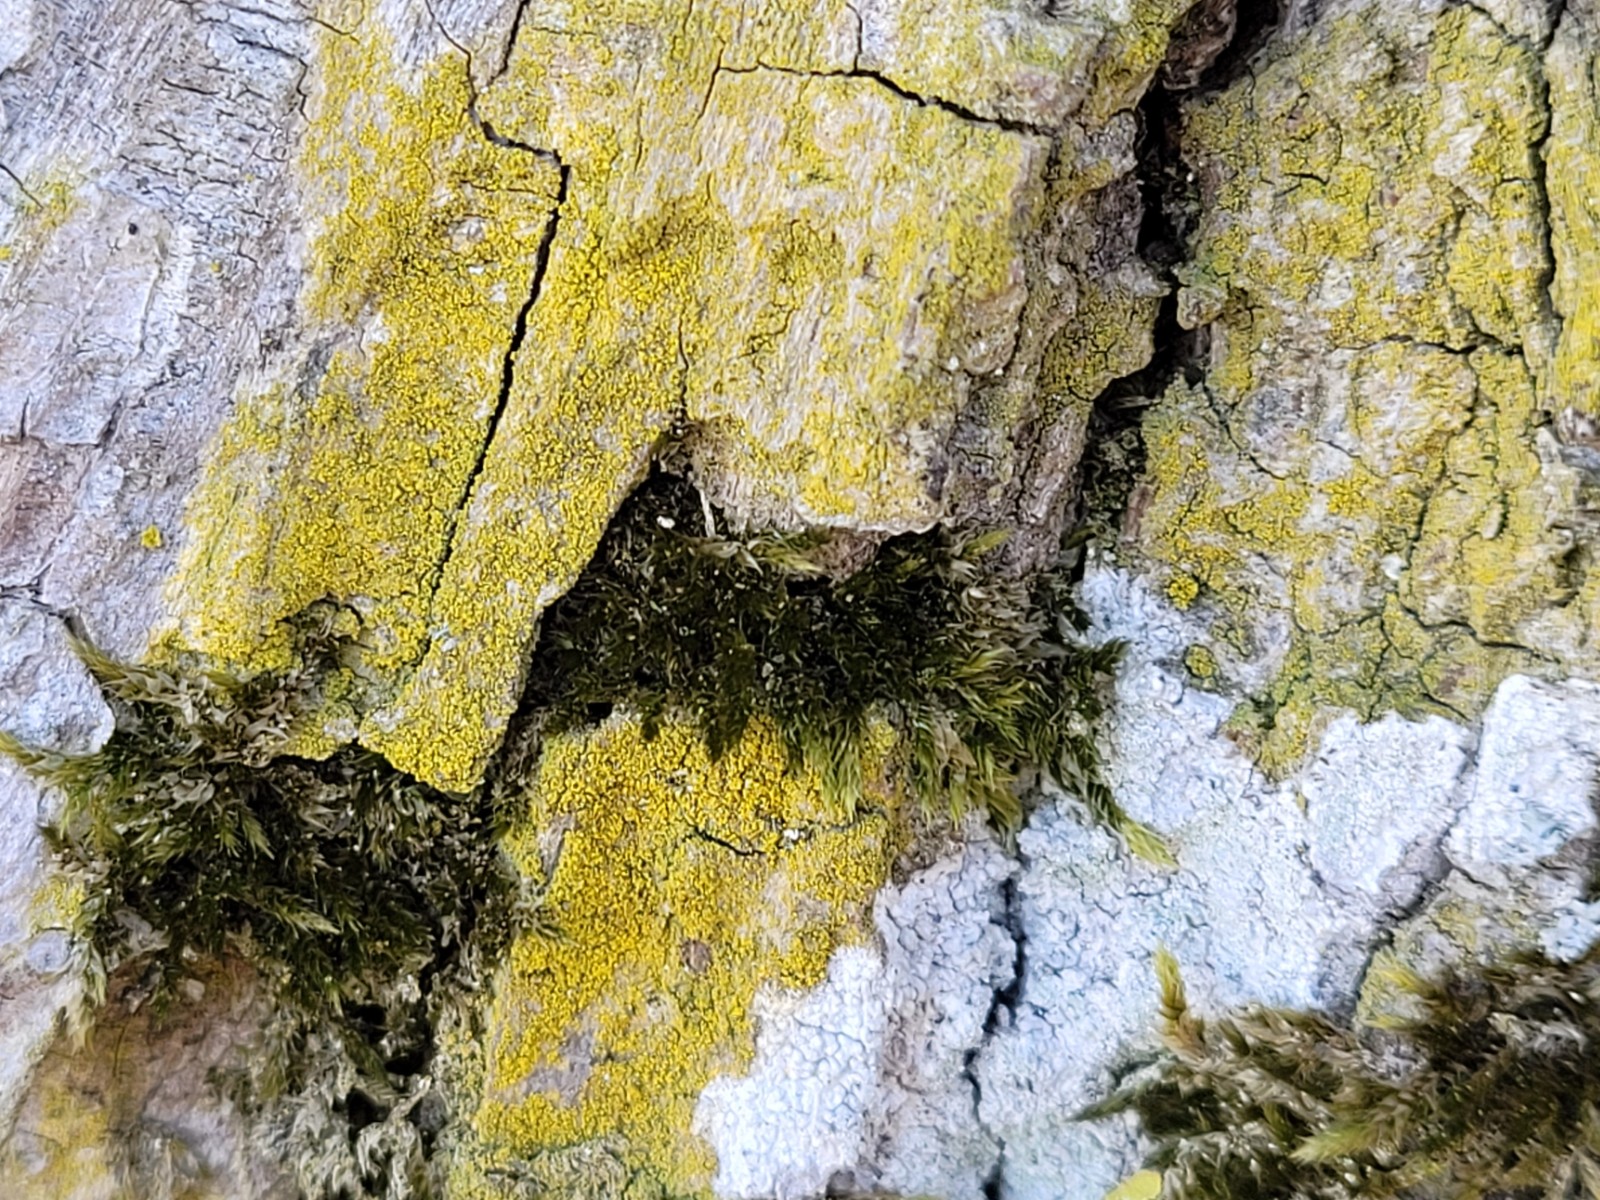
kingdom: Fungi
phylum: Ascomycota
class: Candelariomycetes
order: Candelariales
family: Candelariaceae
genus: Candelaria
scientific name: Candelaria
